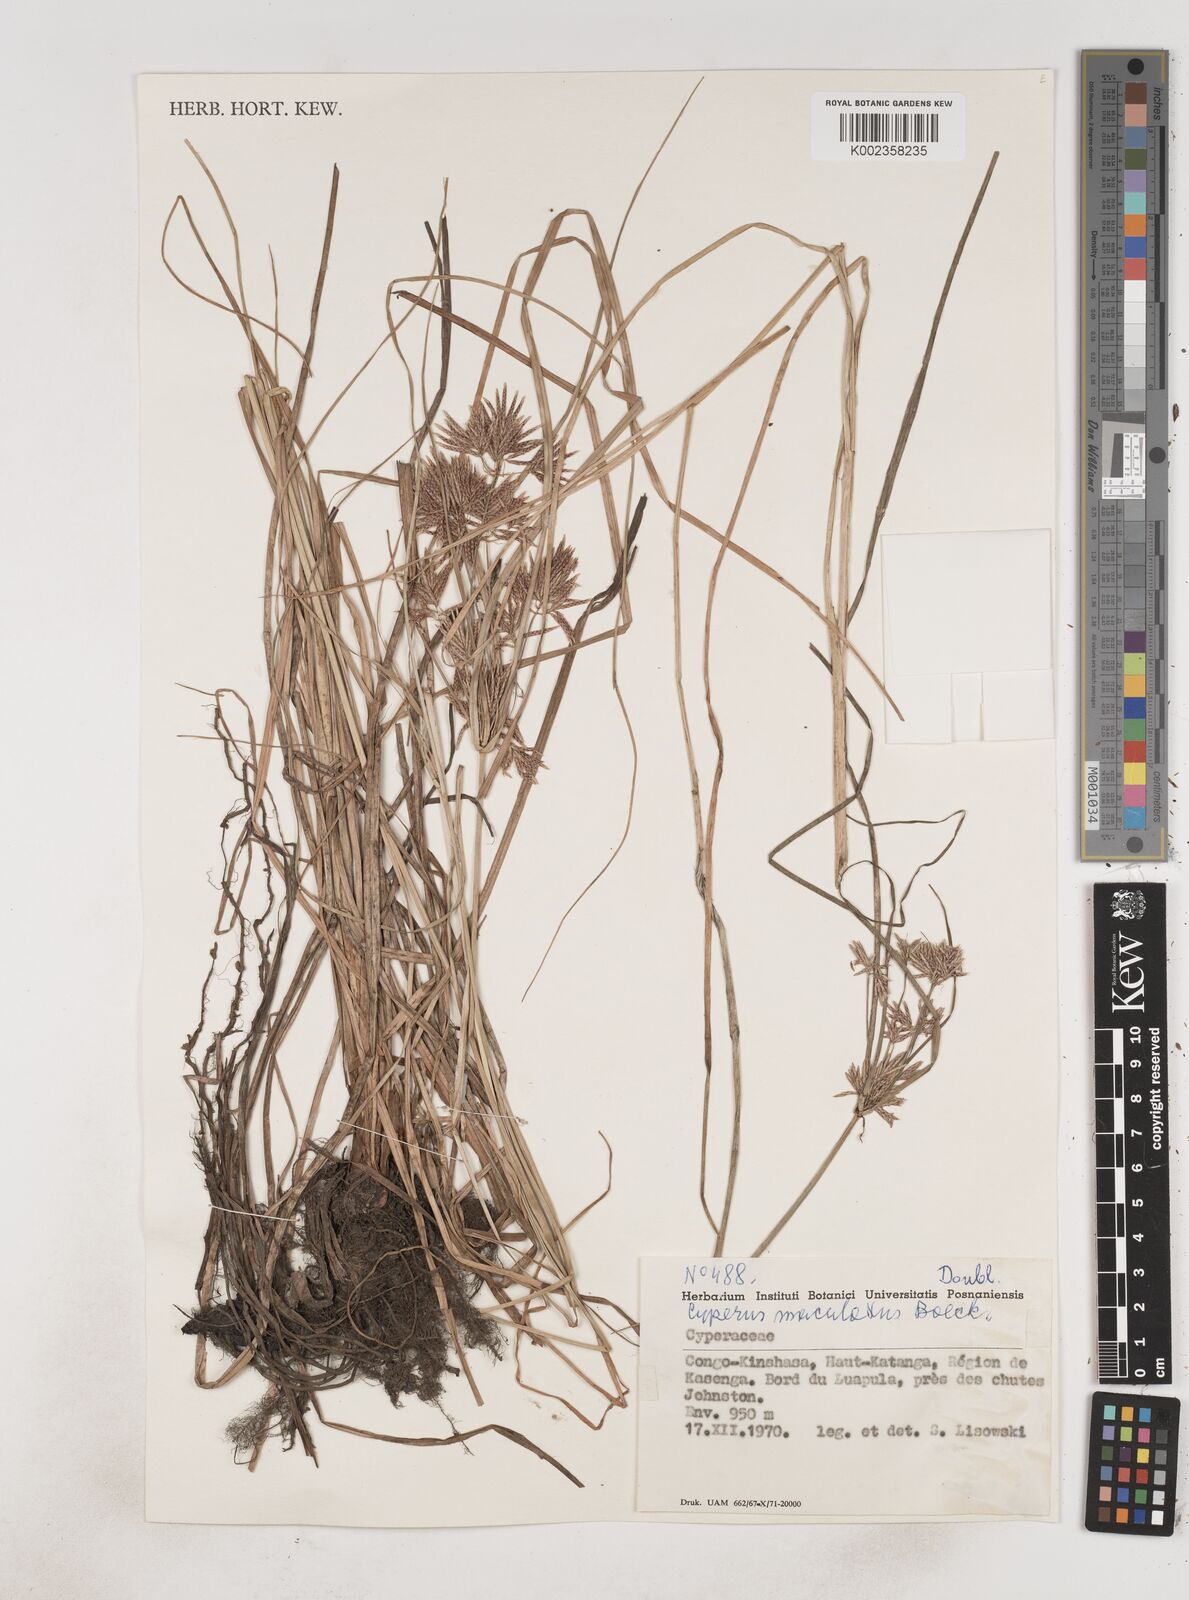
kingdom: Plantae
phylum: Tracheophyta
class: Liliopsida
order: Poales
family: Cyperaceae
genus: Cyperus
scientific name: Cyperus maculatus
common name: Maculated sedge
